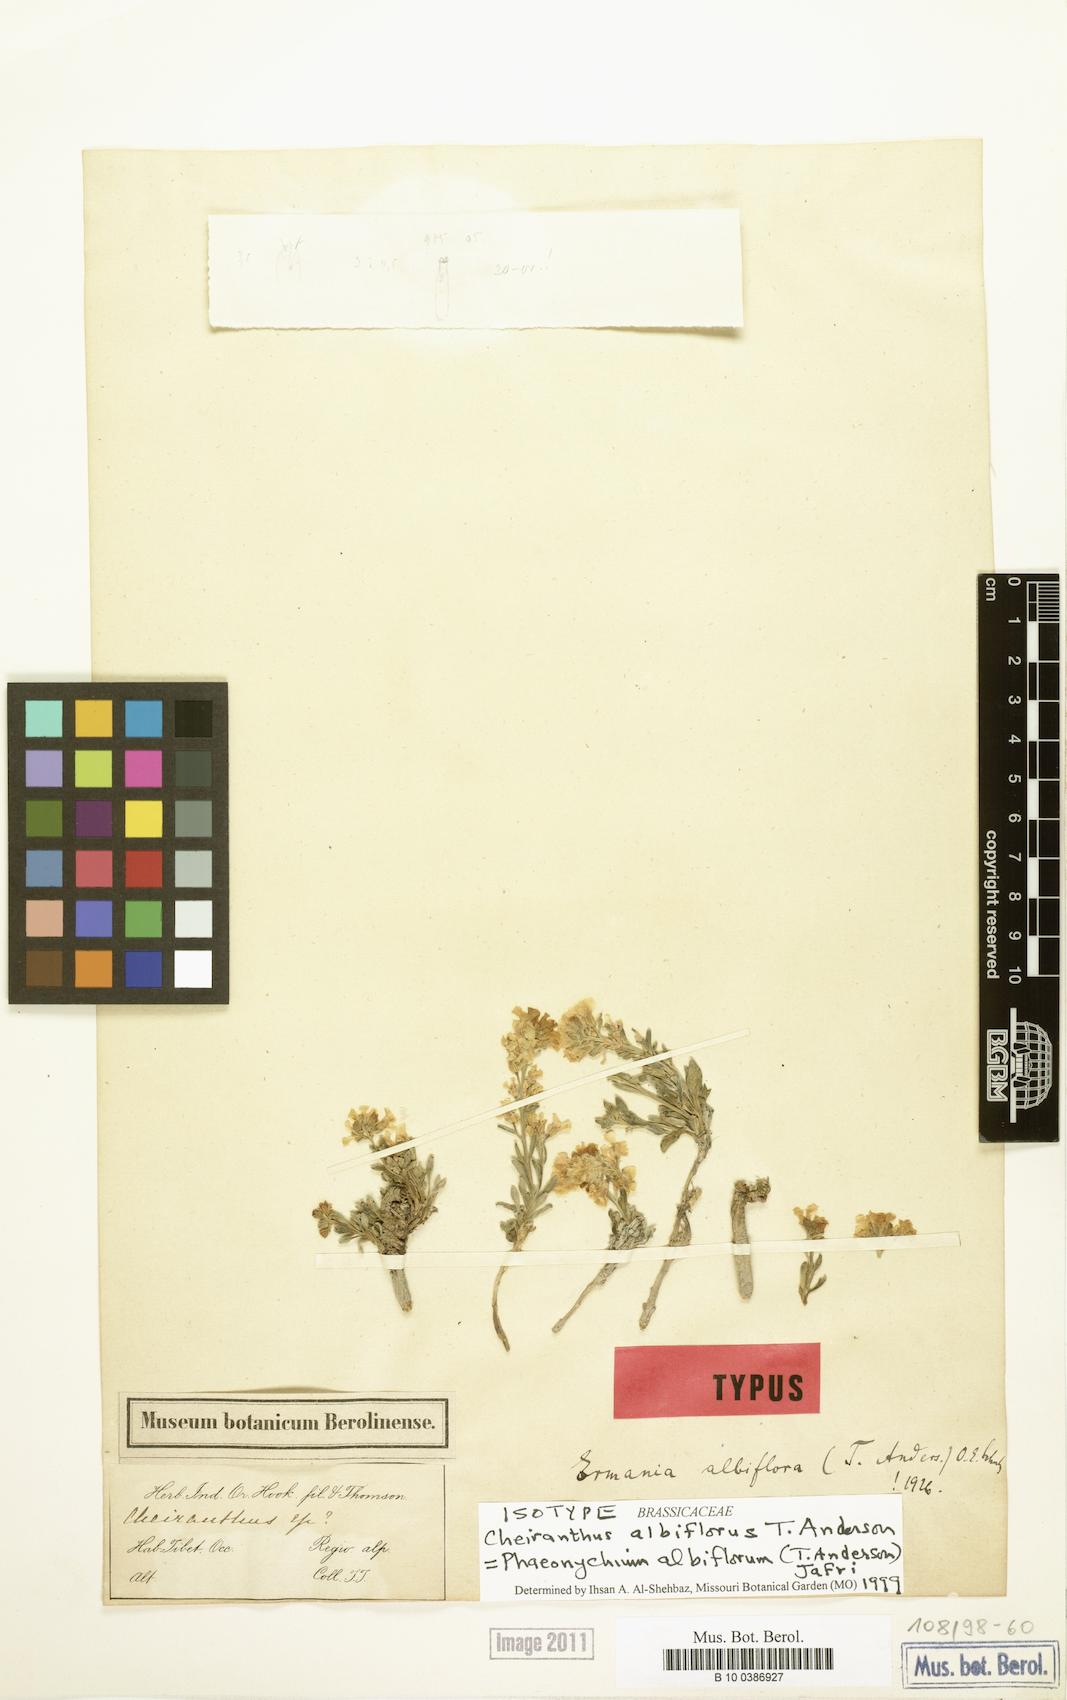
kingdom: Plantae
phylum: Tracheophyta
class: Magnoliopsida
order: Brassicales
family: Brassicaceae
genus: Solms-laubachia
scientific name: Solms-laubachia albiflora
